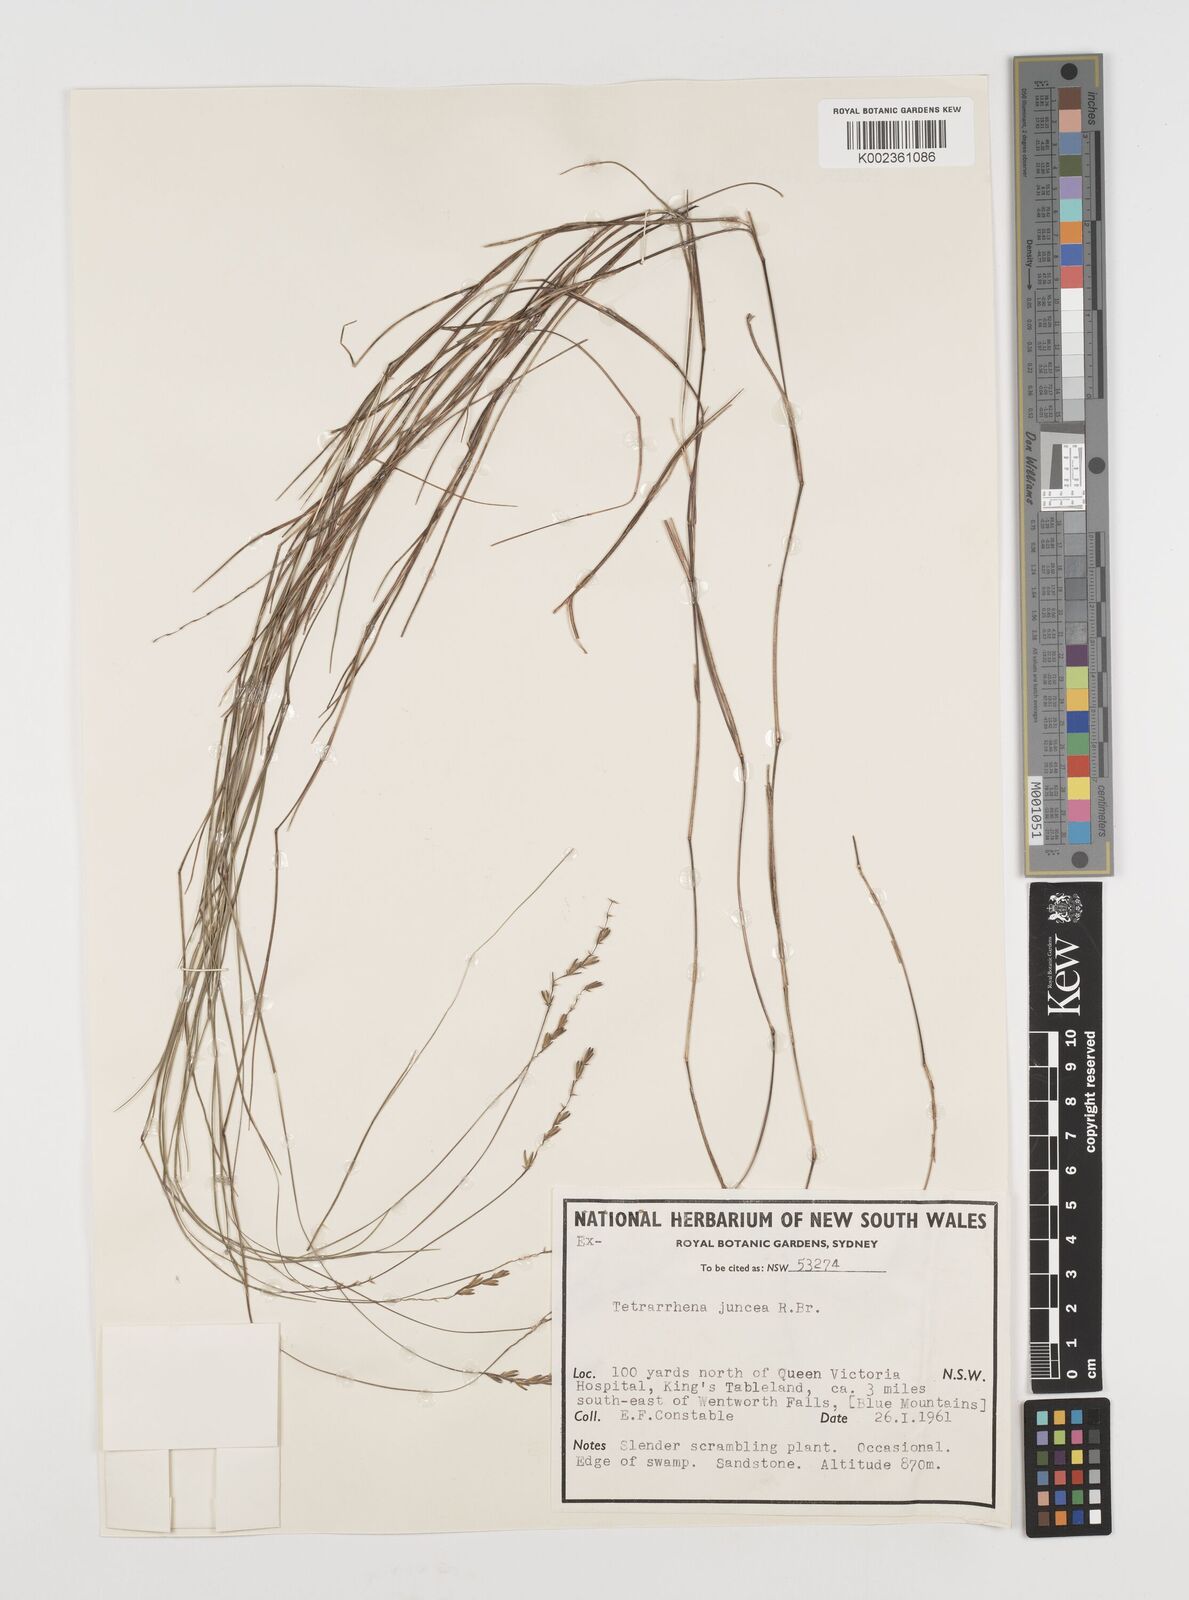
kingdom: Plantae
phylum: Tracheophyta
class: Liliopsida
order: Poales
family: Poaceae
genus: Tetrarrhena
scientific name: Tetrarrhena juncea
